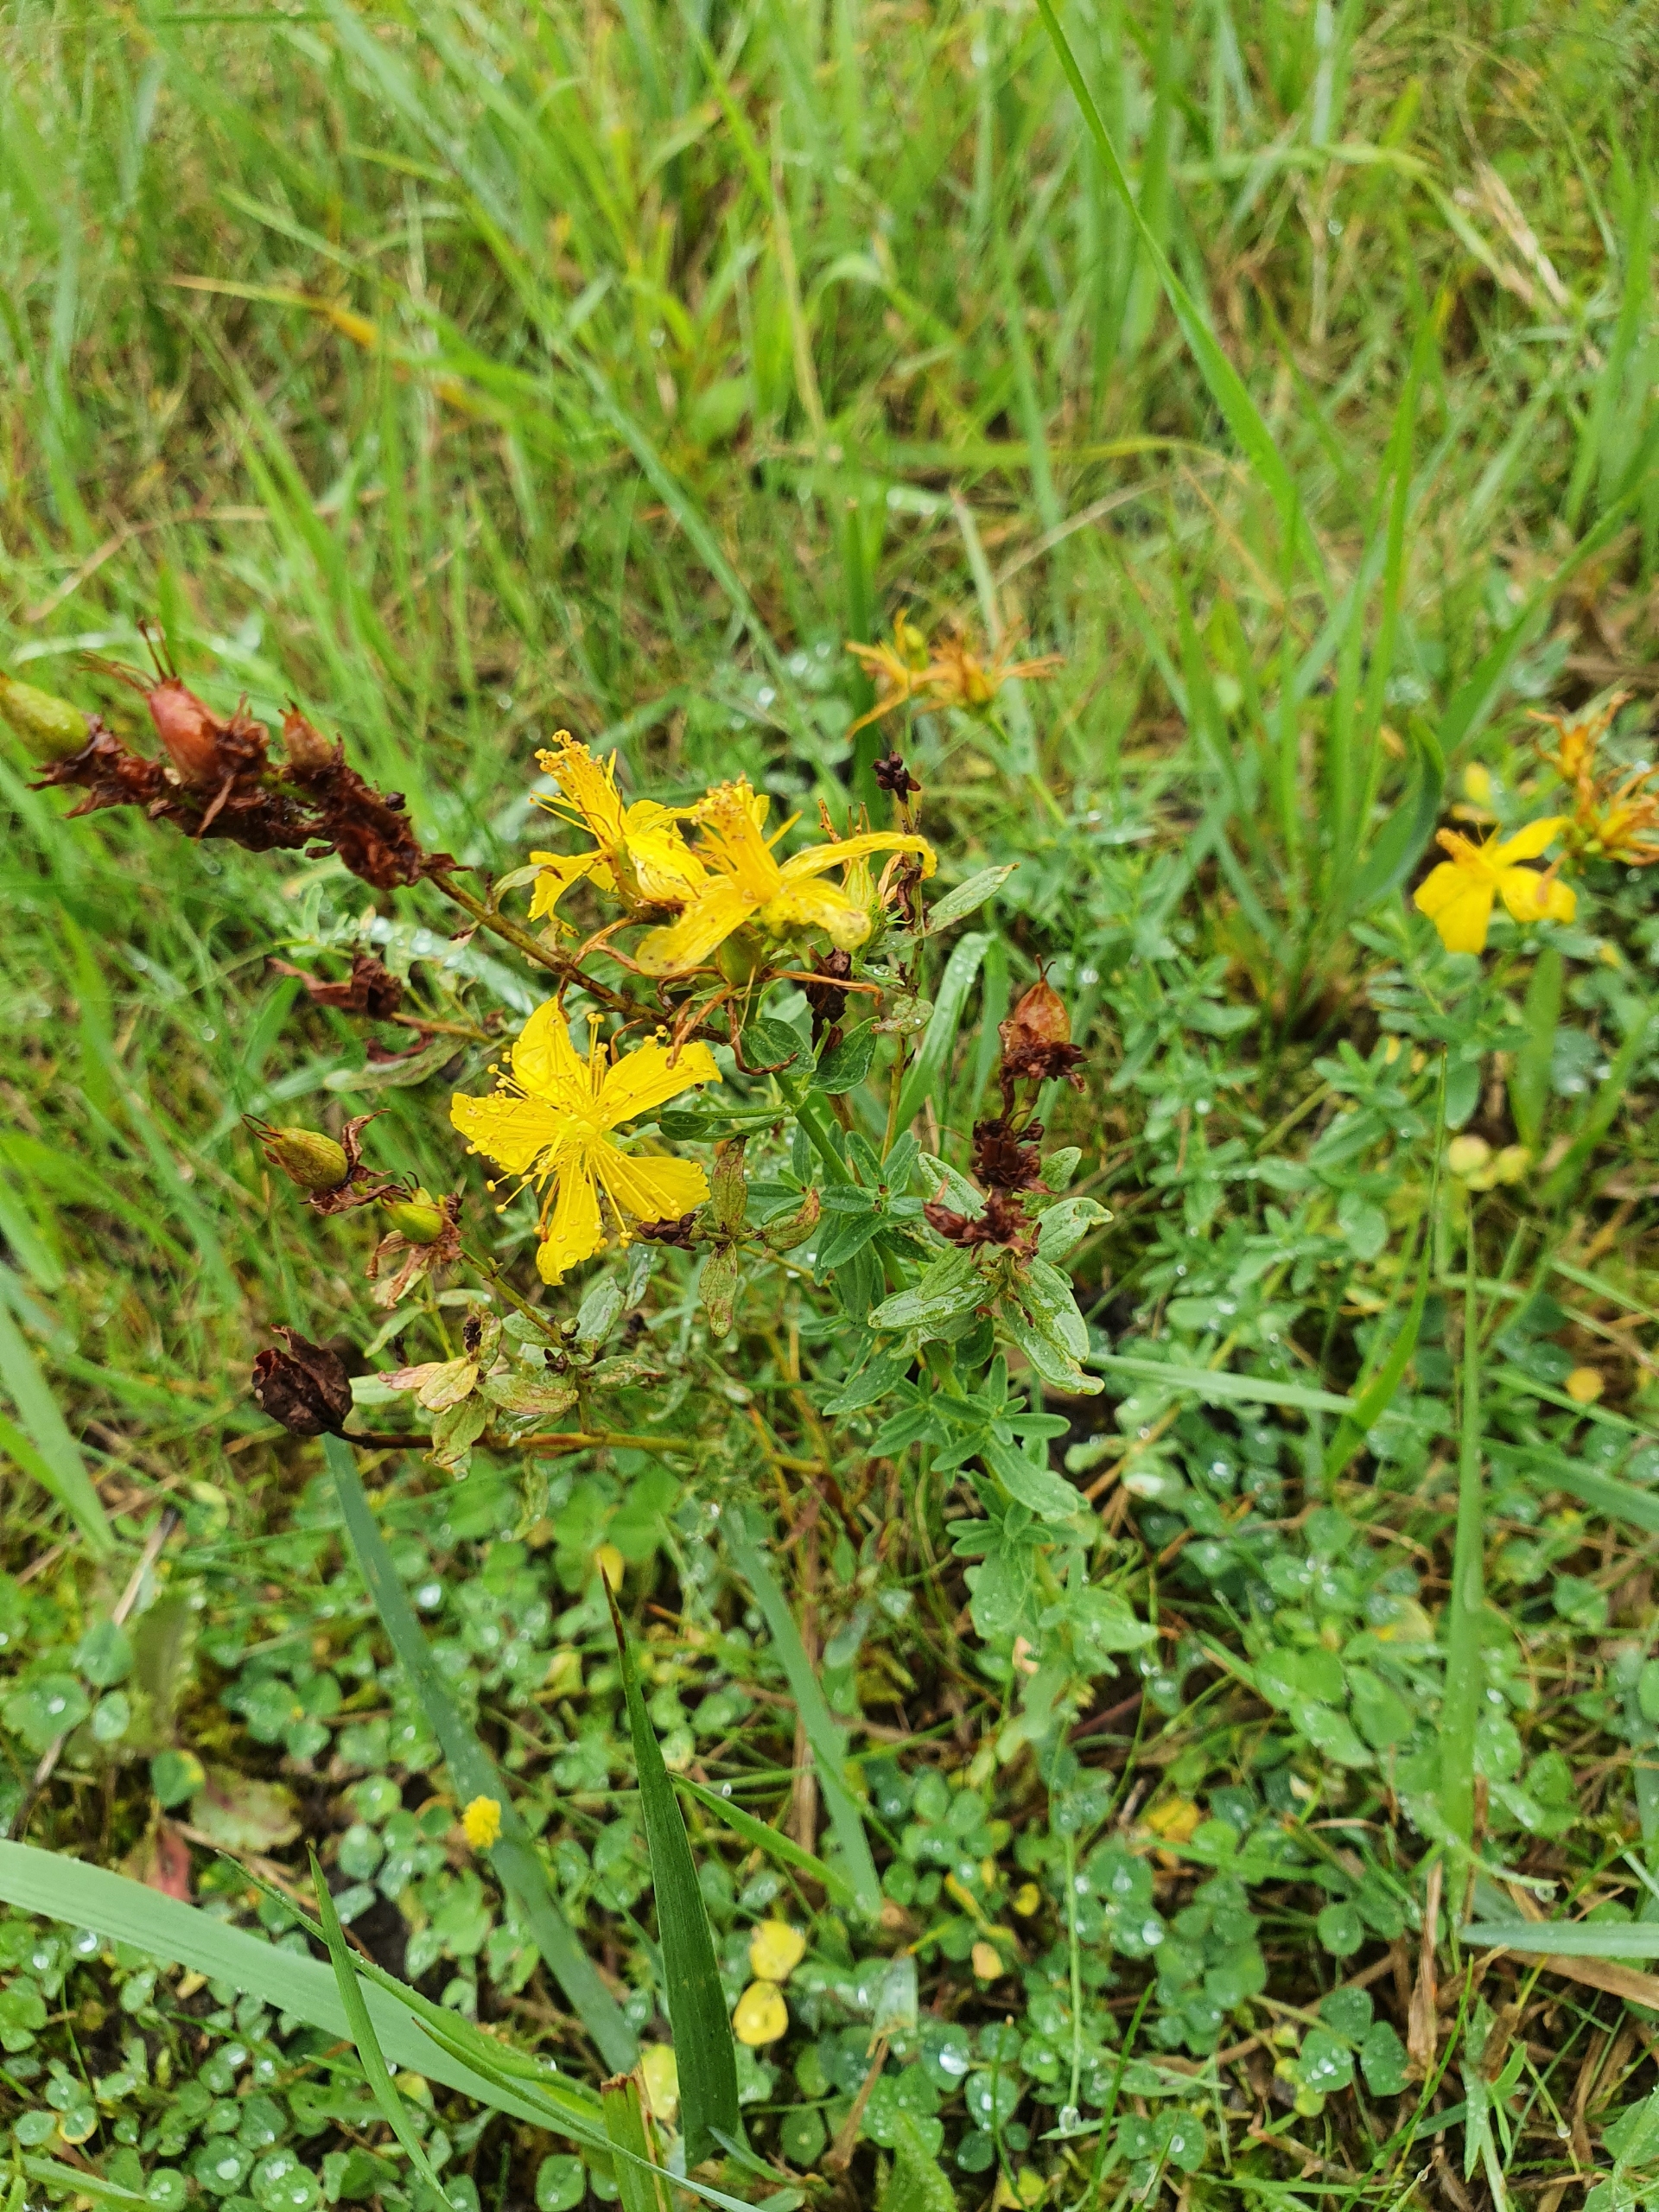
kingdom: Plantae
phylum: Tracheophyta
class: Magnoliopsida
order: Malpighiales
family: Hypericaceae
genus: Hypericum
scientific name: Hypericum perforatum
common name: Prikbladet perikon
